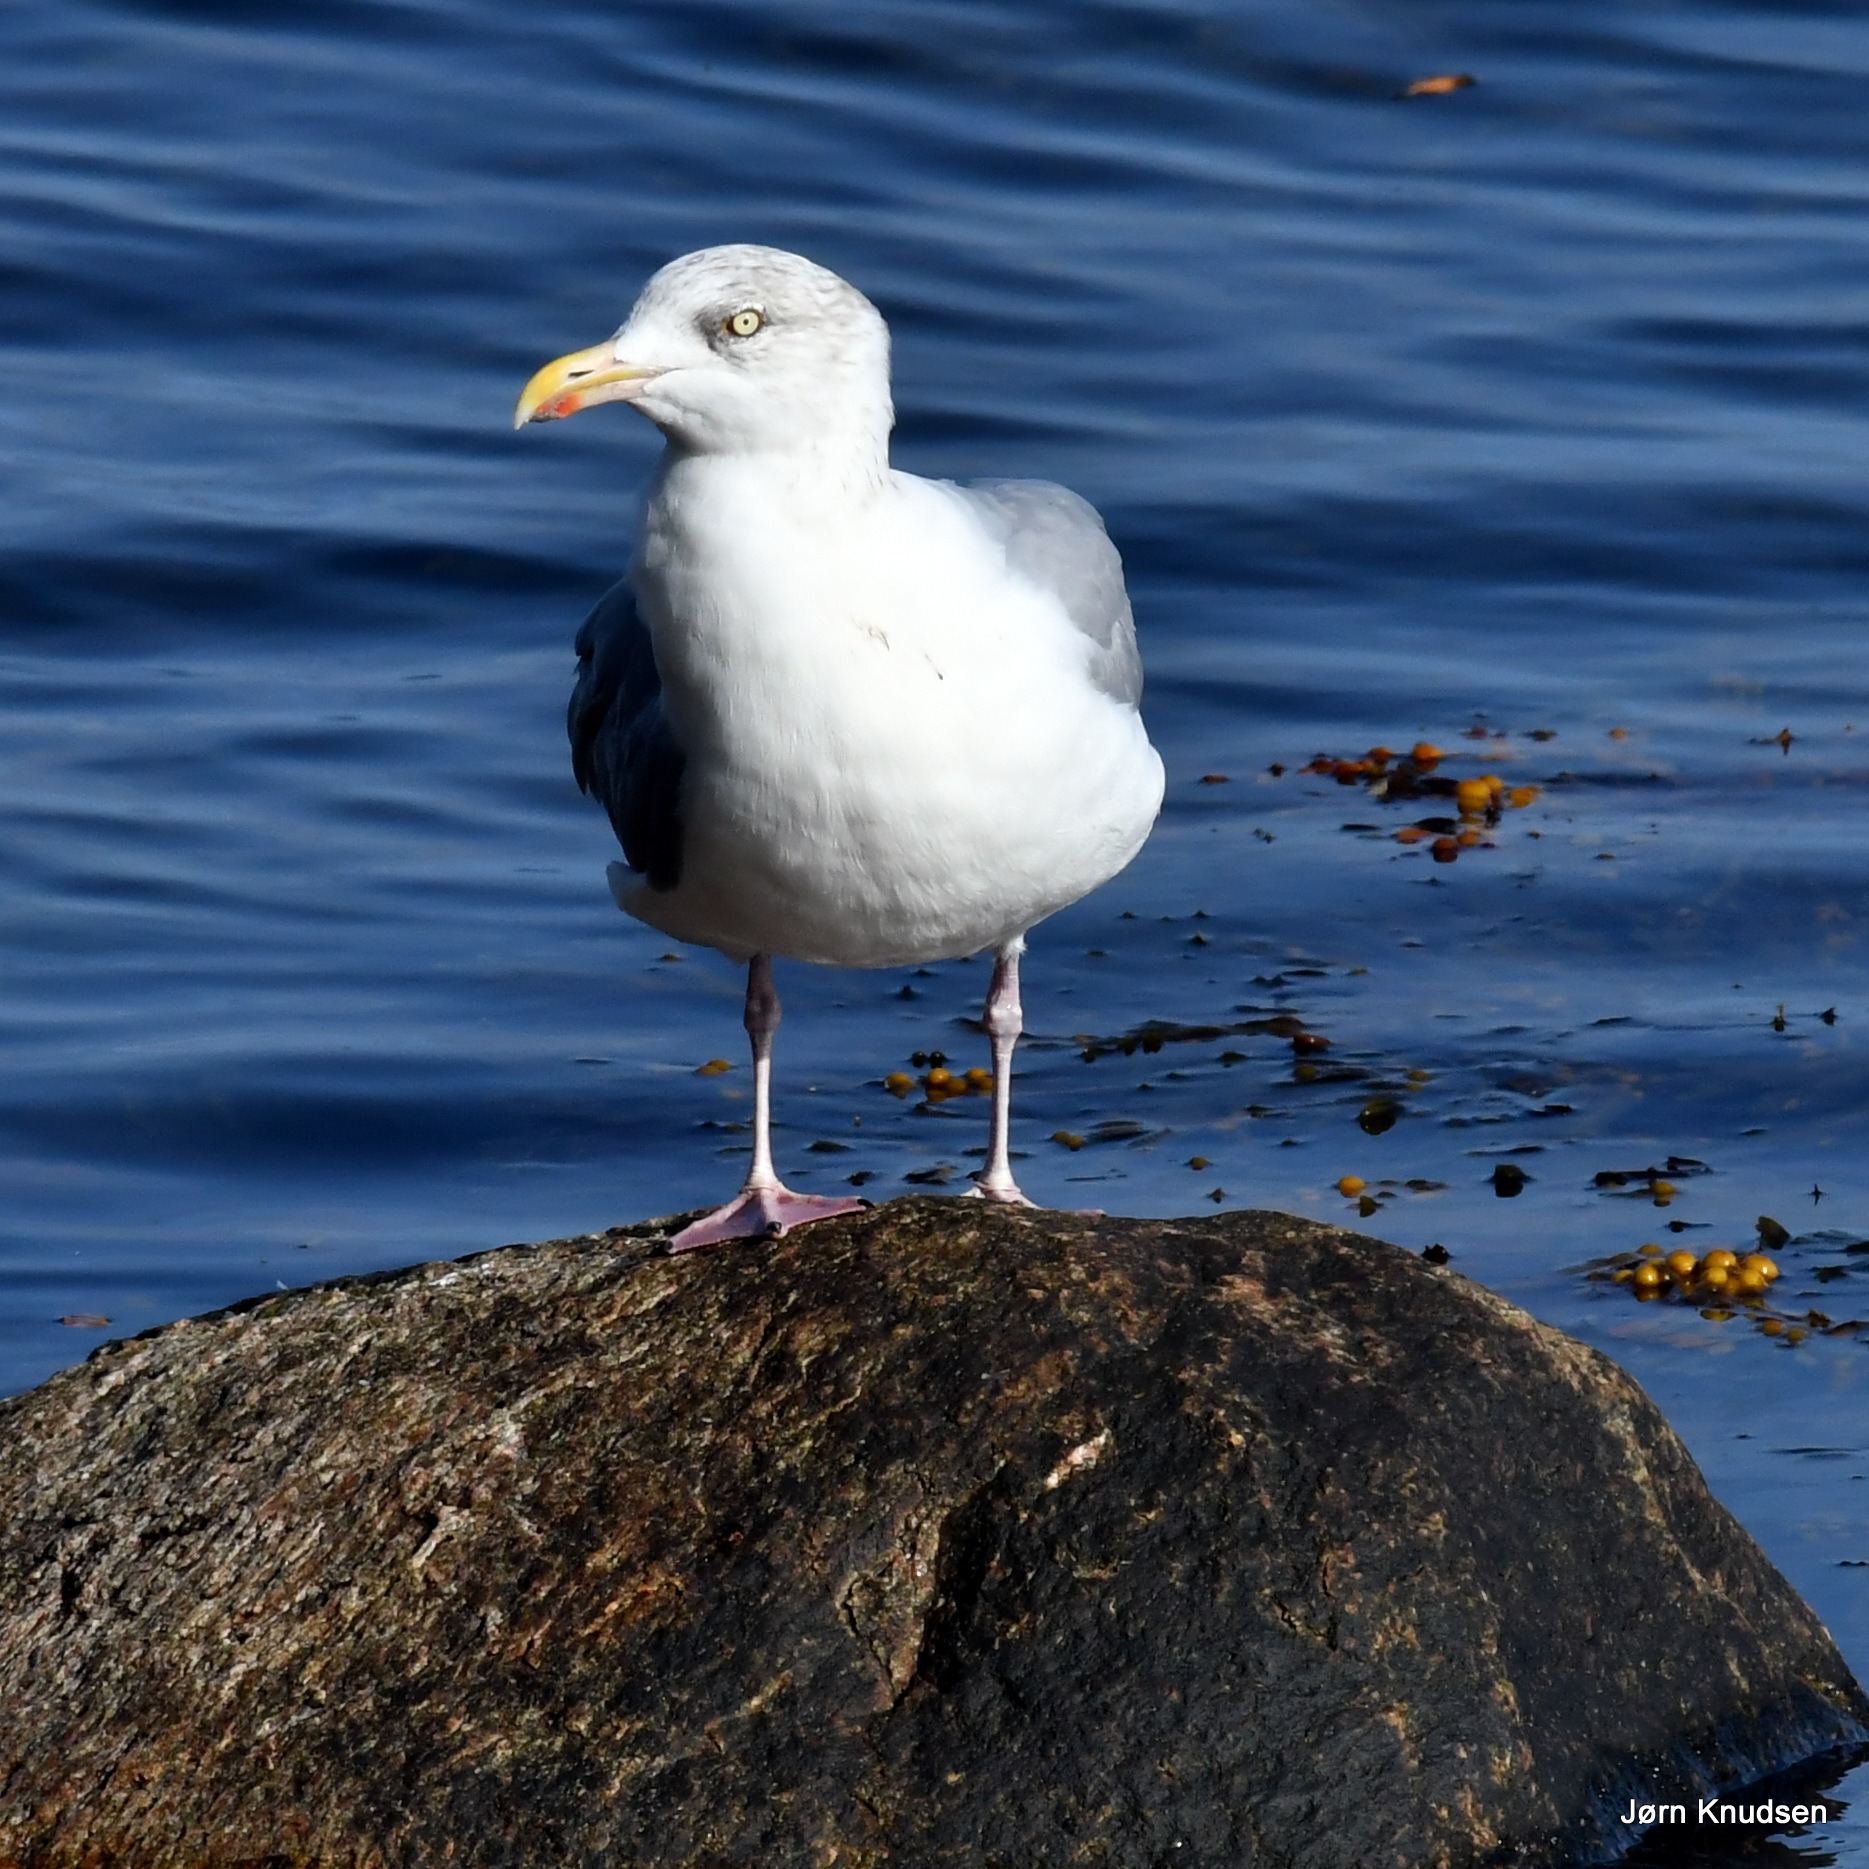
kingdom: Animalia
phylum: Chordata
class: Aves
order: Charadriiformes
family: Laridae
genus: Larus
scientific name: Larus argentatus
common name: Sølvmåge
